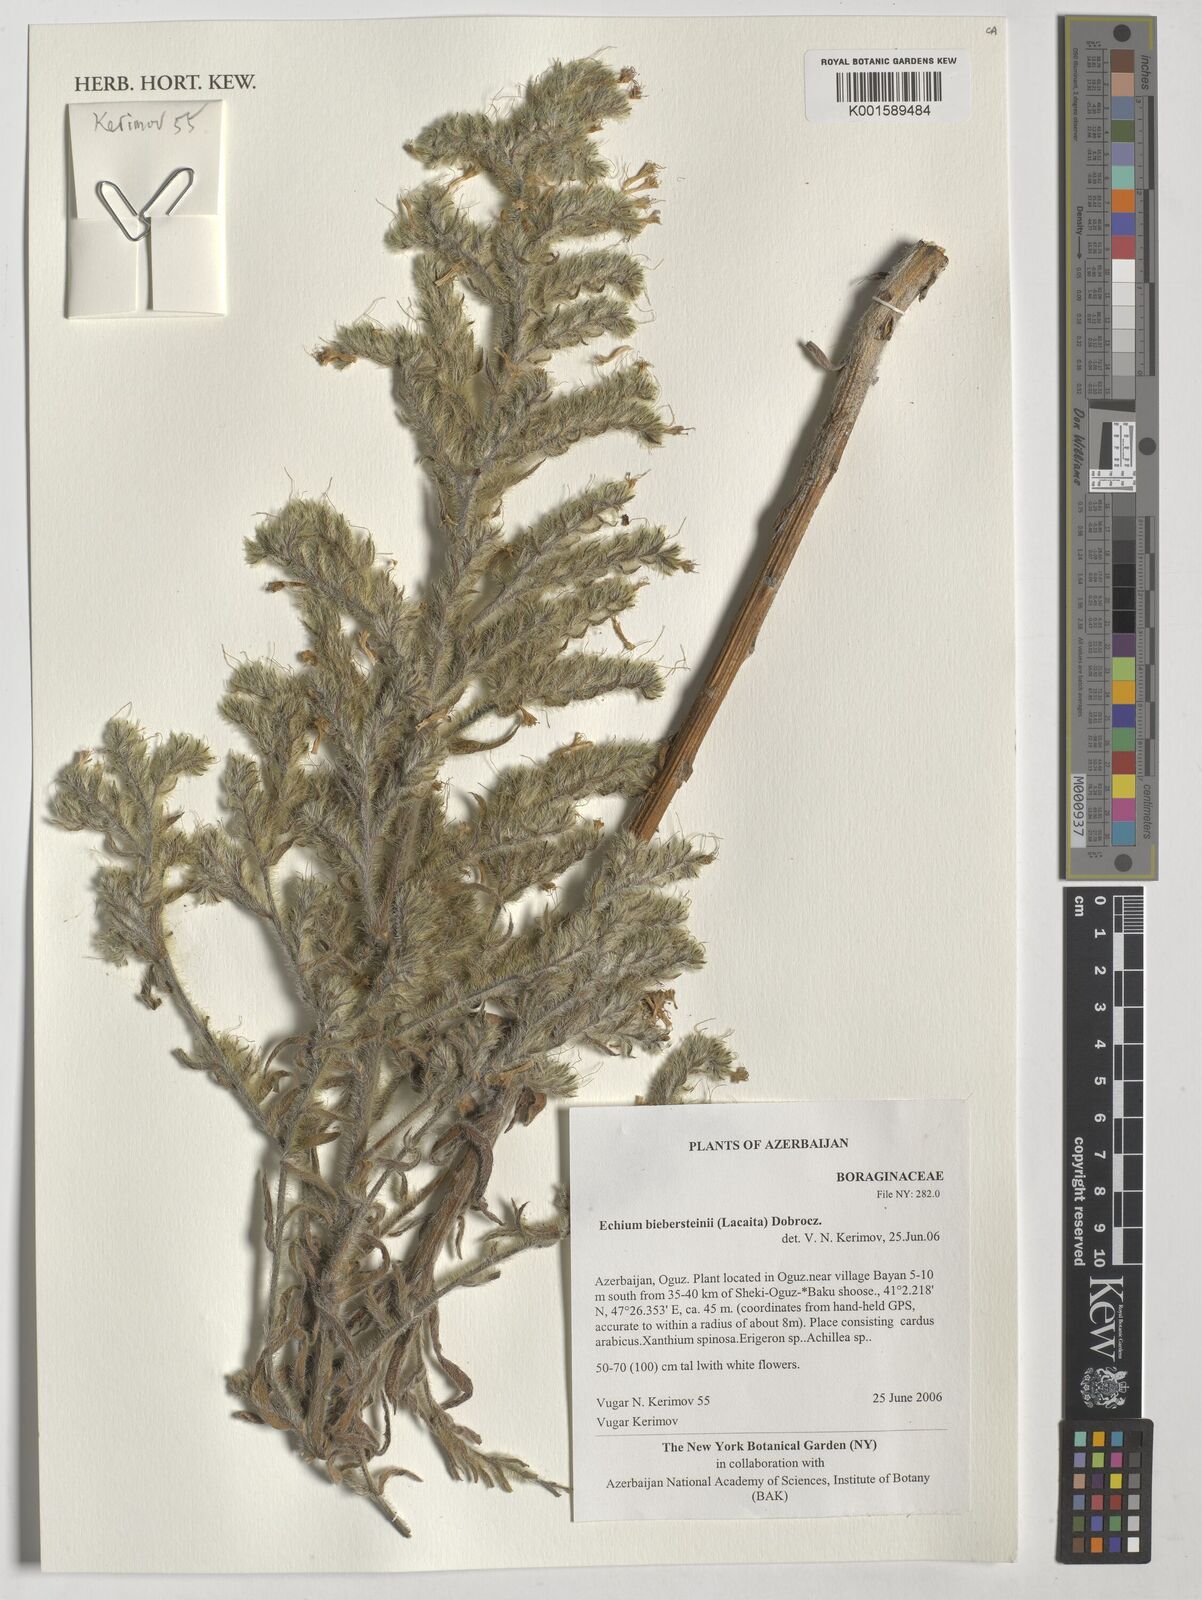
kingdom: Plantae
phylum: Tracheophyta
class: Magnoliopsida
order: Boraginales
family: Boraginaceae
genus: Echium
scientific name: Echium
